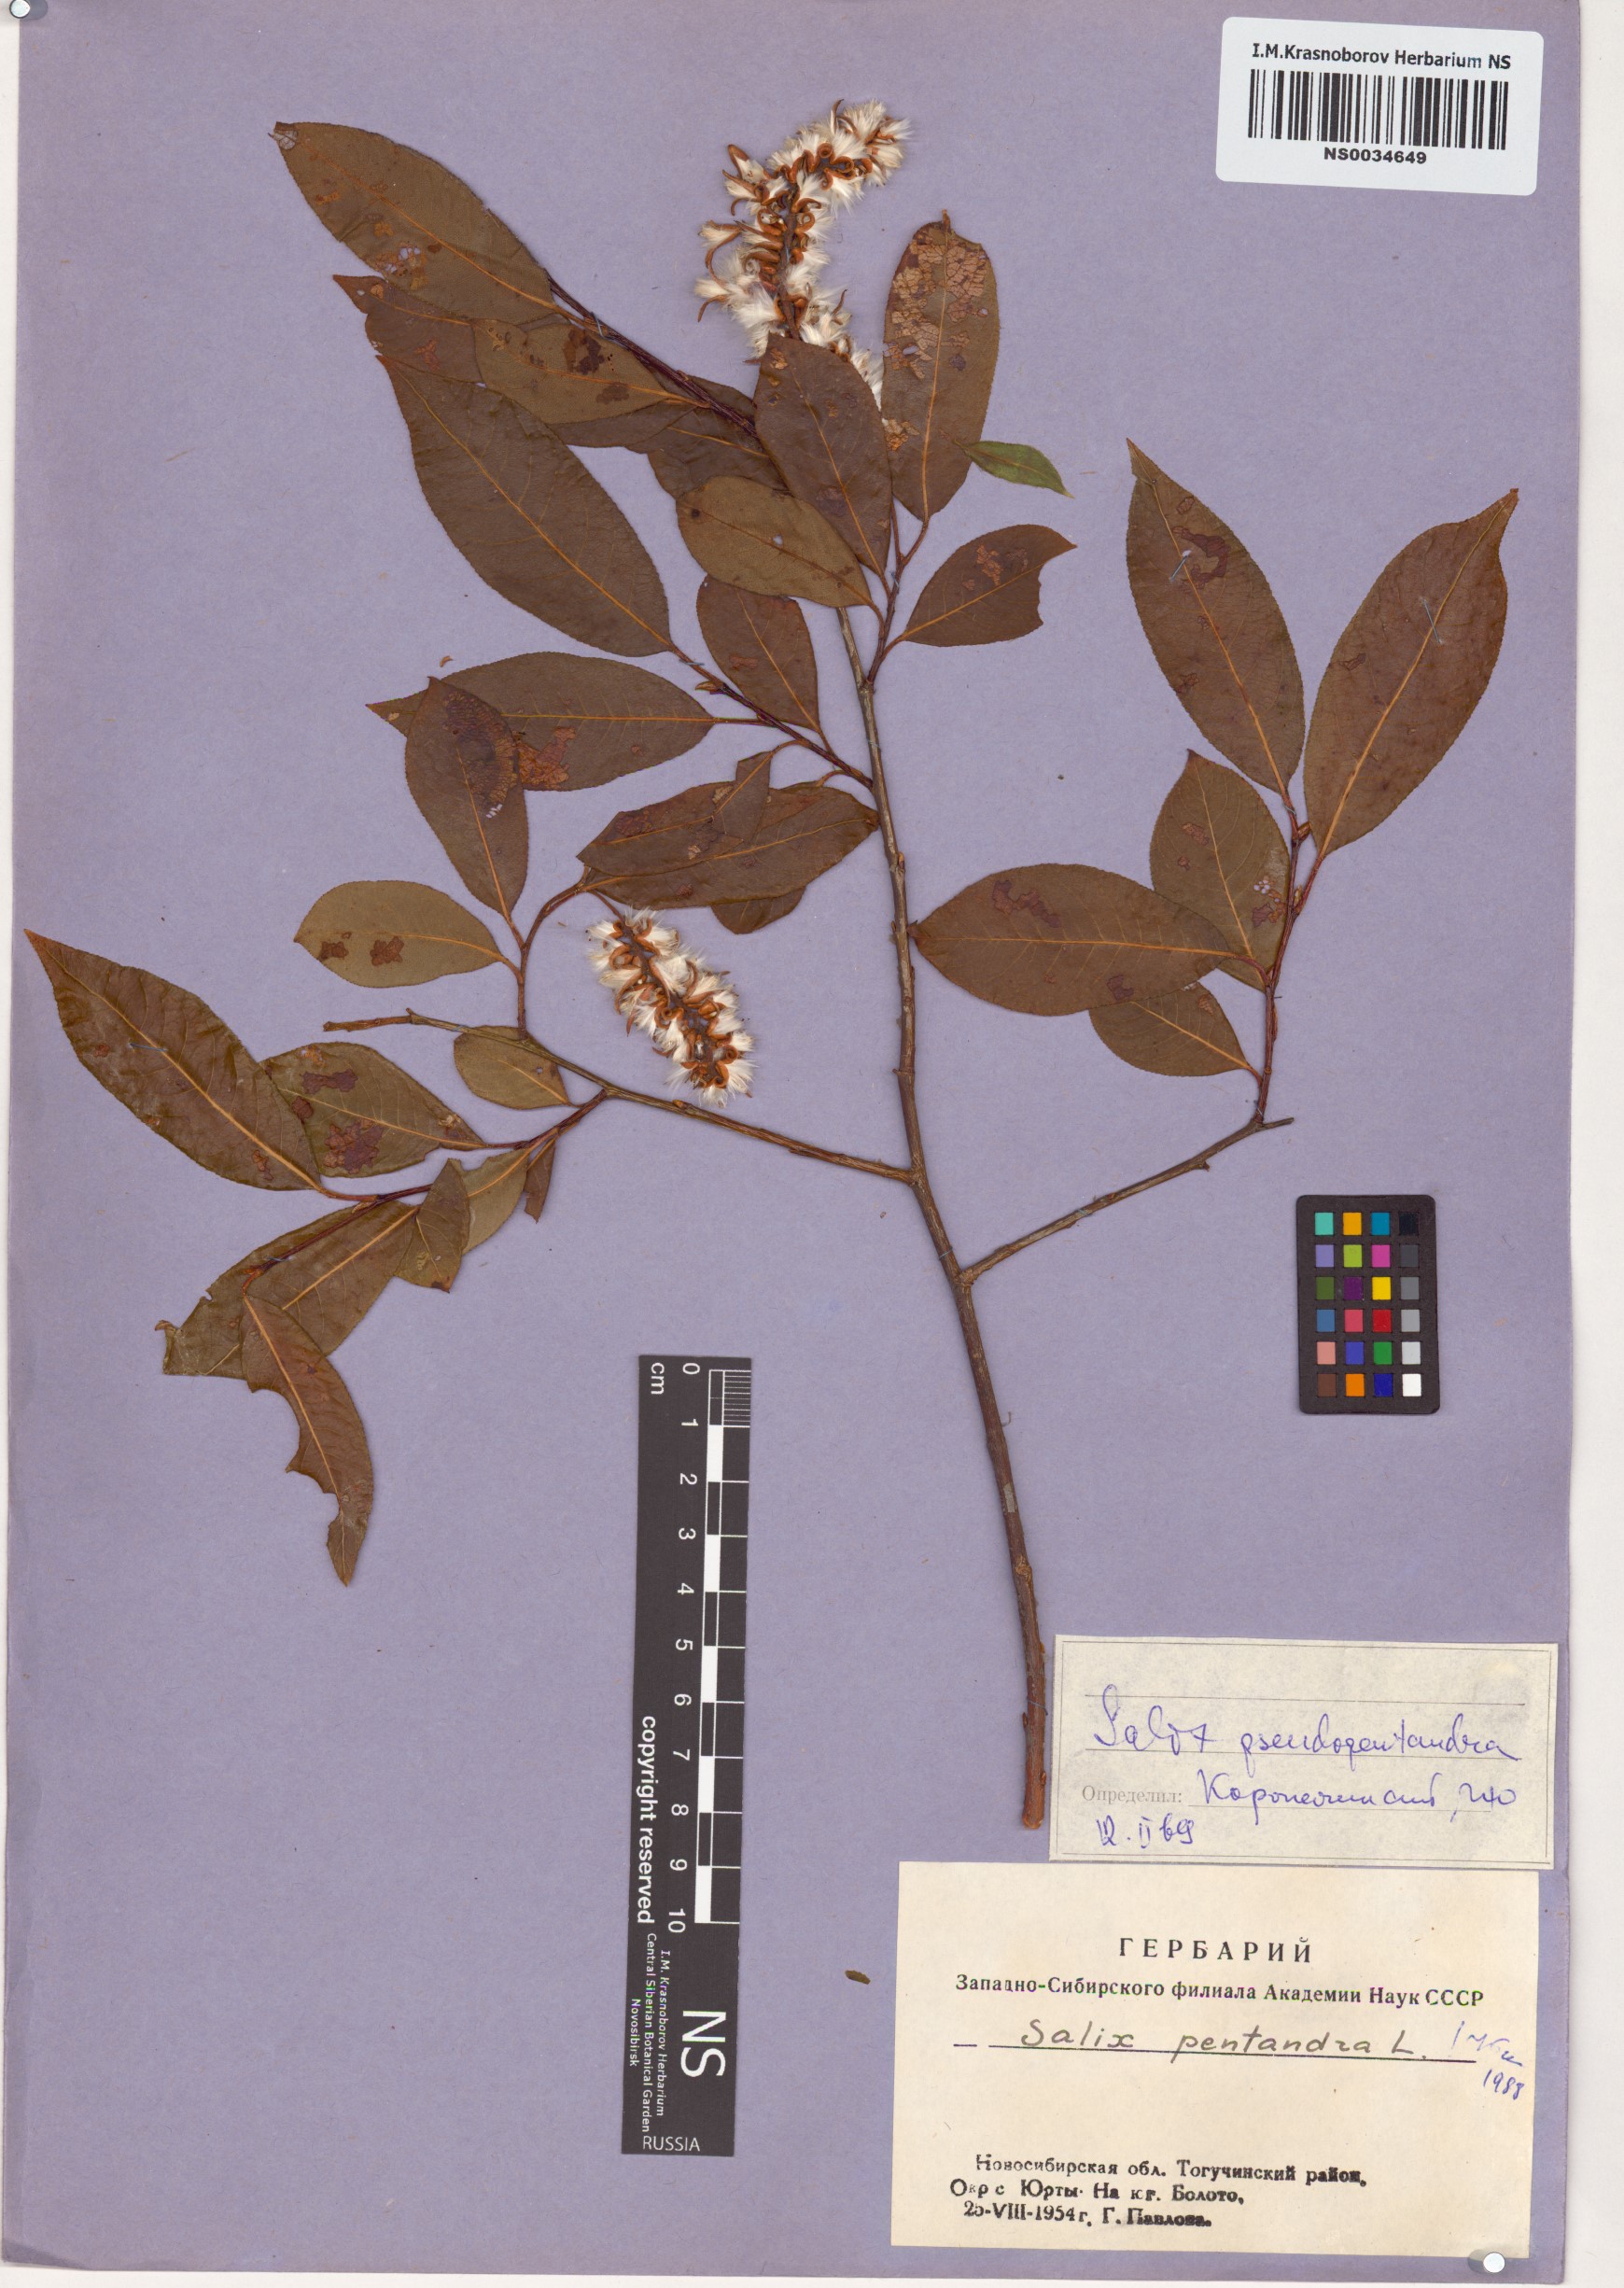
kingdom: Plantae
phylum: Tracheophyta
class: Magnoliopsida
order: Malpighiales
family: Salicaceae
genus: Salix
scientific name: Salix pentandra
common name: Bay willow
